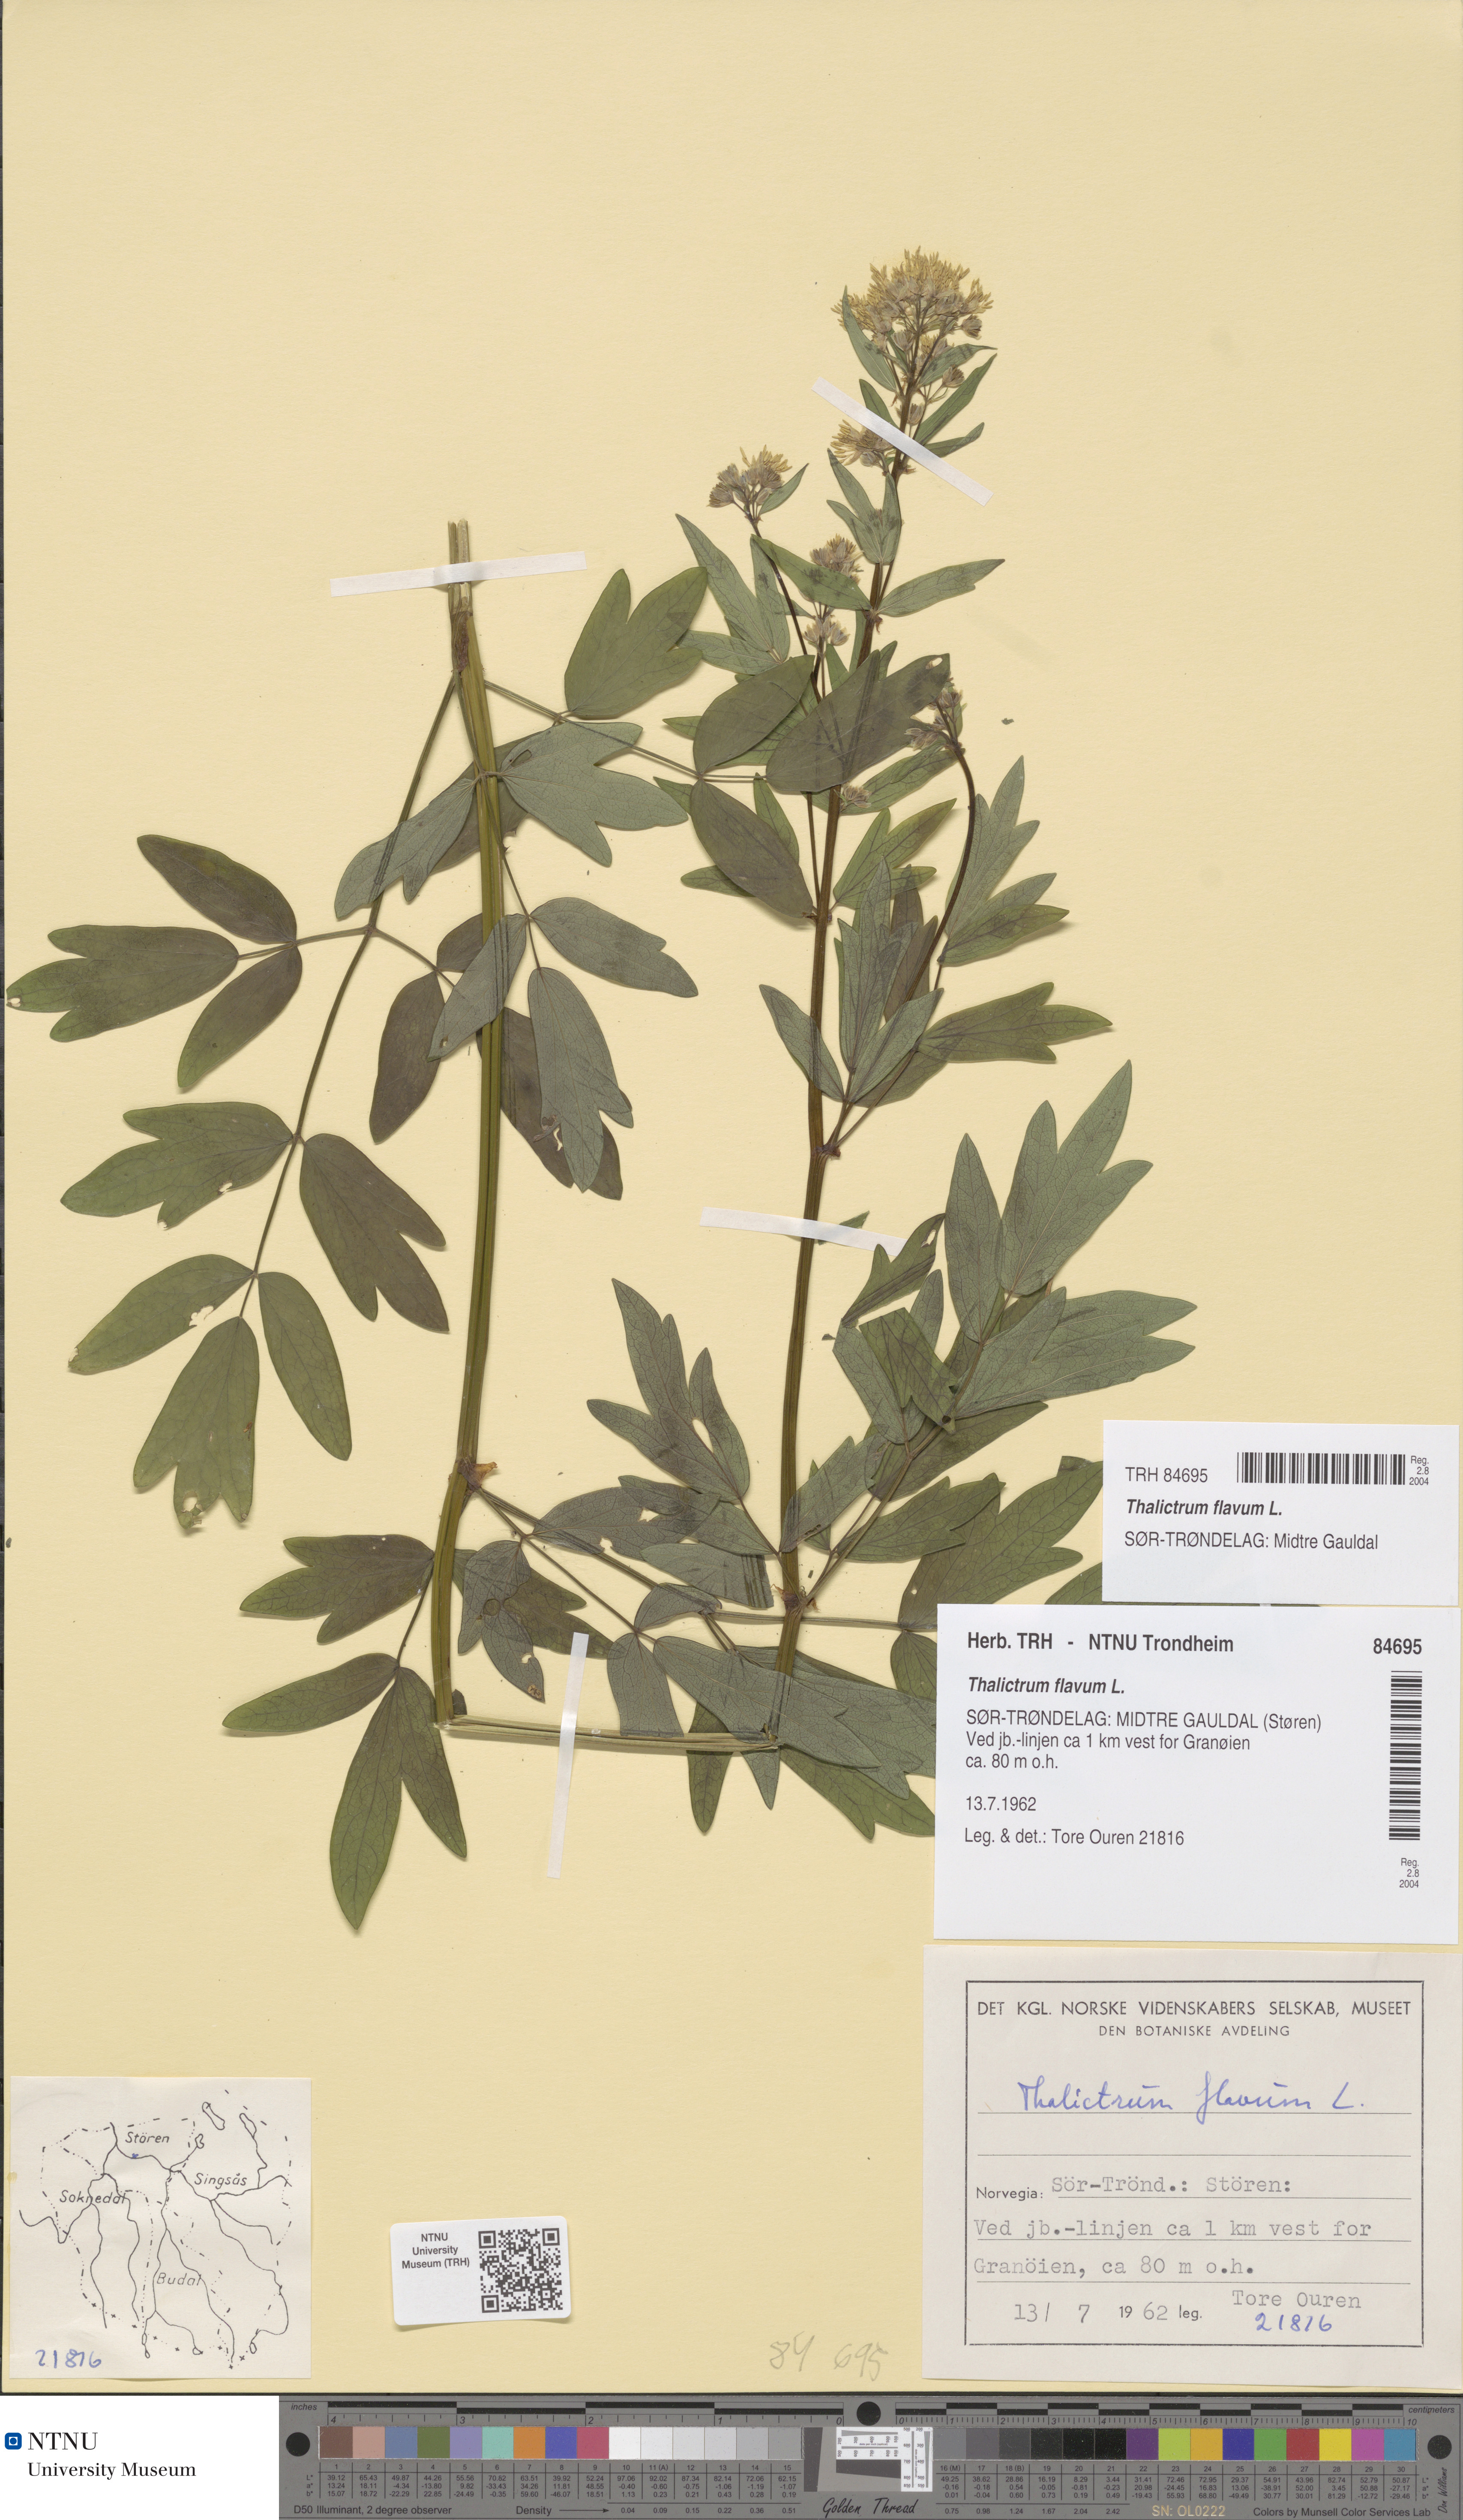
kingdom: Plantae
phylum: Tracheophyta
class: Magnoliopsida
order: Ranunculales
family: Ranunculaceae
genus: Thalictrum
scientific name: Thalictrum flavum
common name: Common meadow-rue
